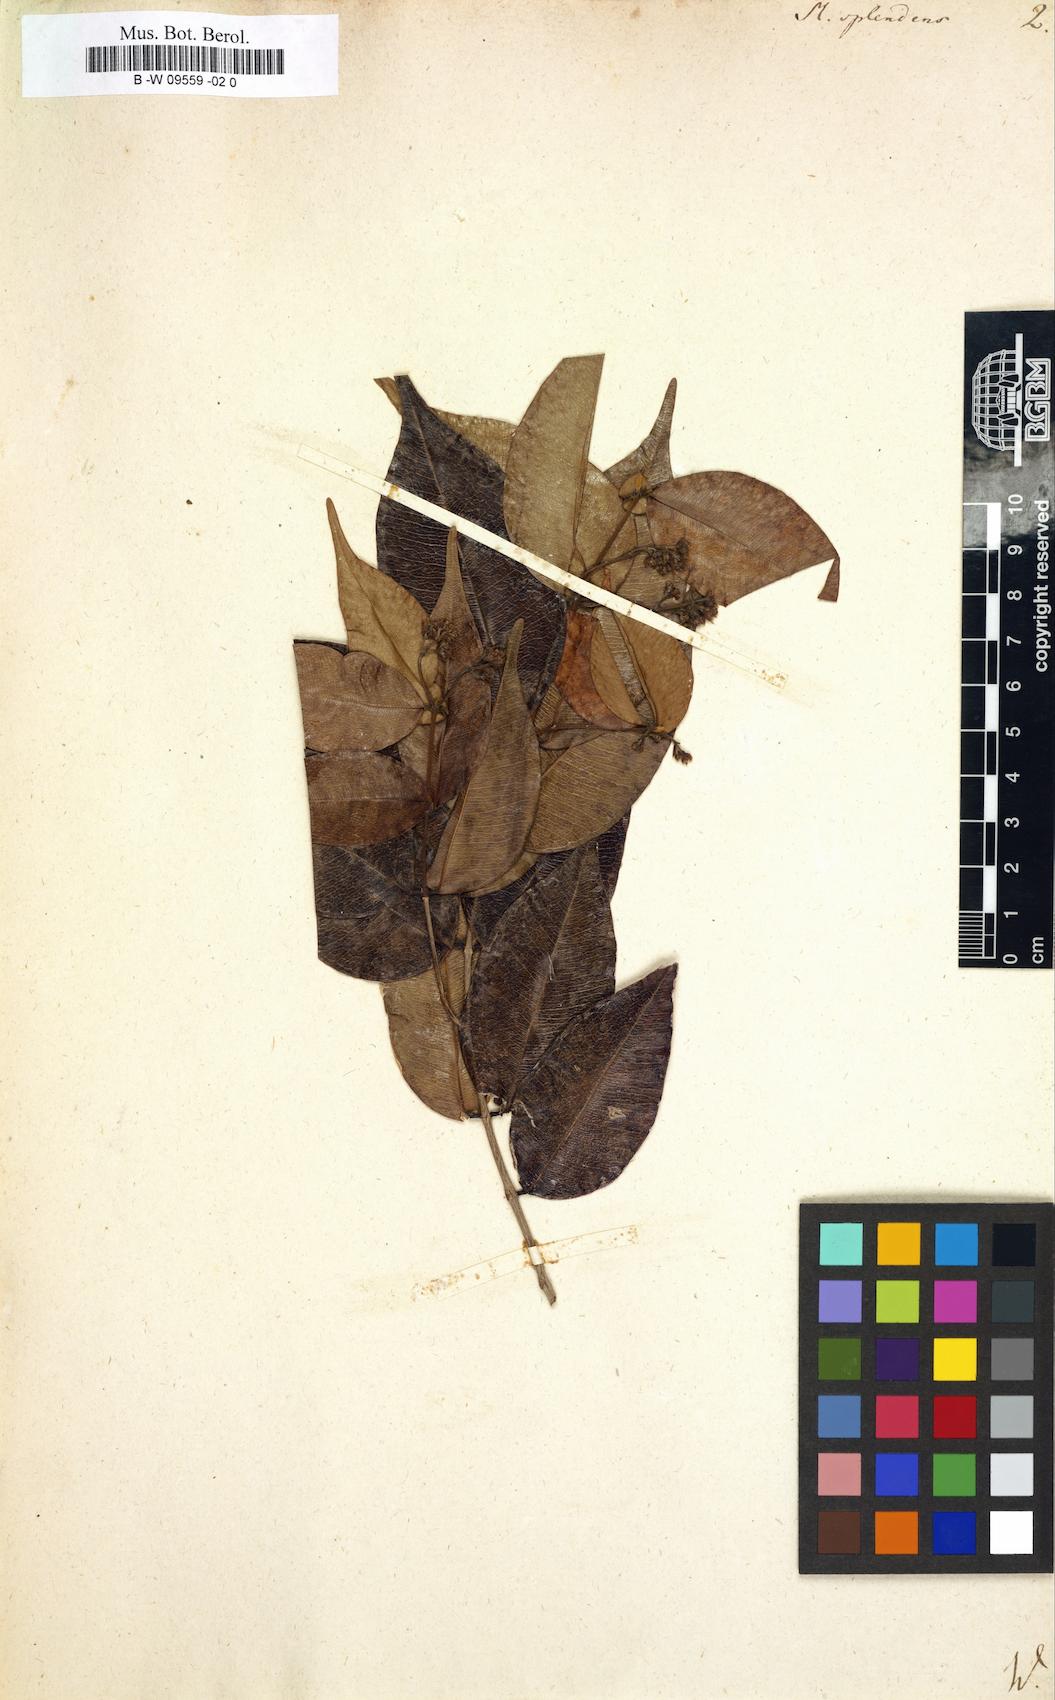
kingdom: Plantae
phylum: Tracheophyta
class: Magnoliopsida
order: Myrtales
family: Myrtaceae
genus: Myrcia
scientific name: Myrcia splendens
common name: Surinam cherry
